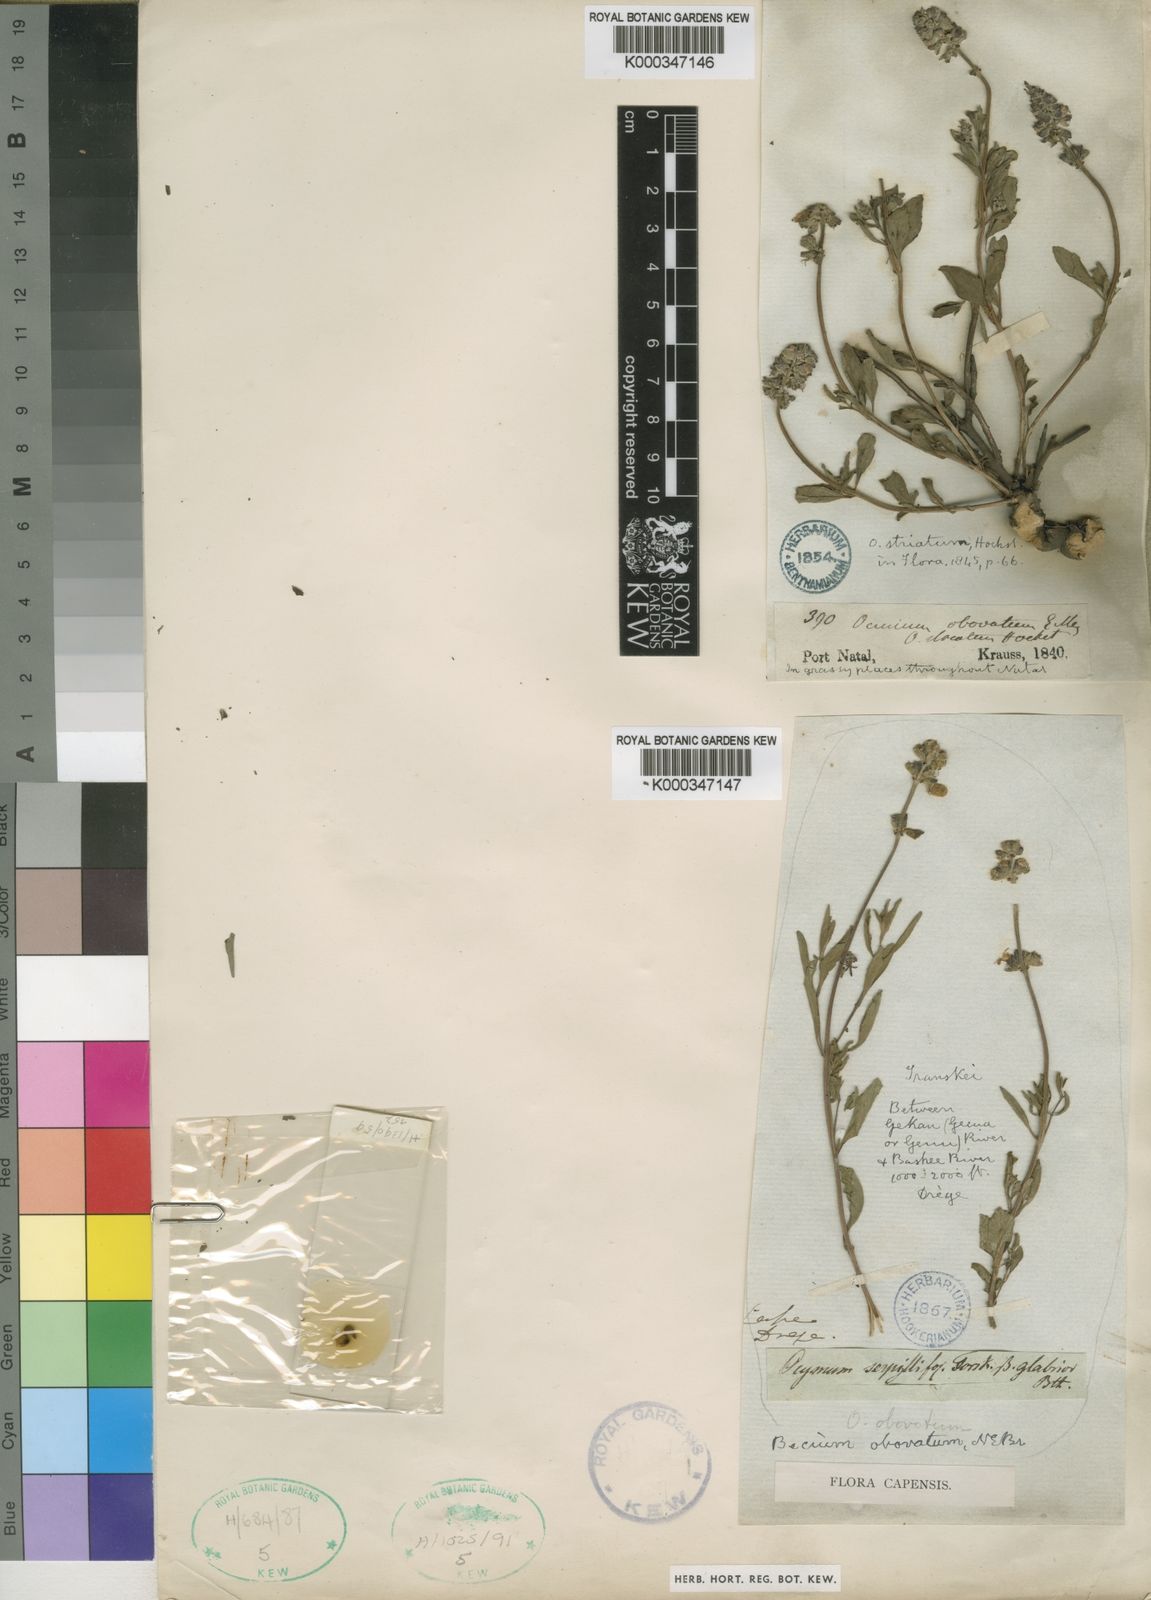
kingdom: Plantae
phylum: Tracheophyta
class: Magnoliopsida
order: Lamiales
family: Lamiaceae
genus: Ocimum
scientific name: Ocimum obovatum
